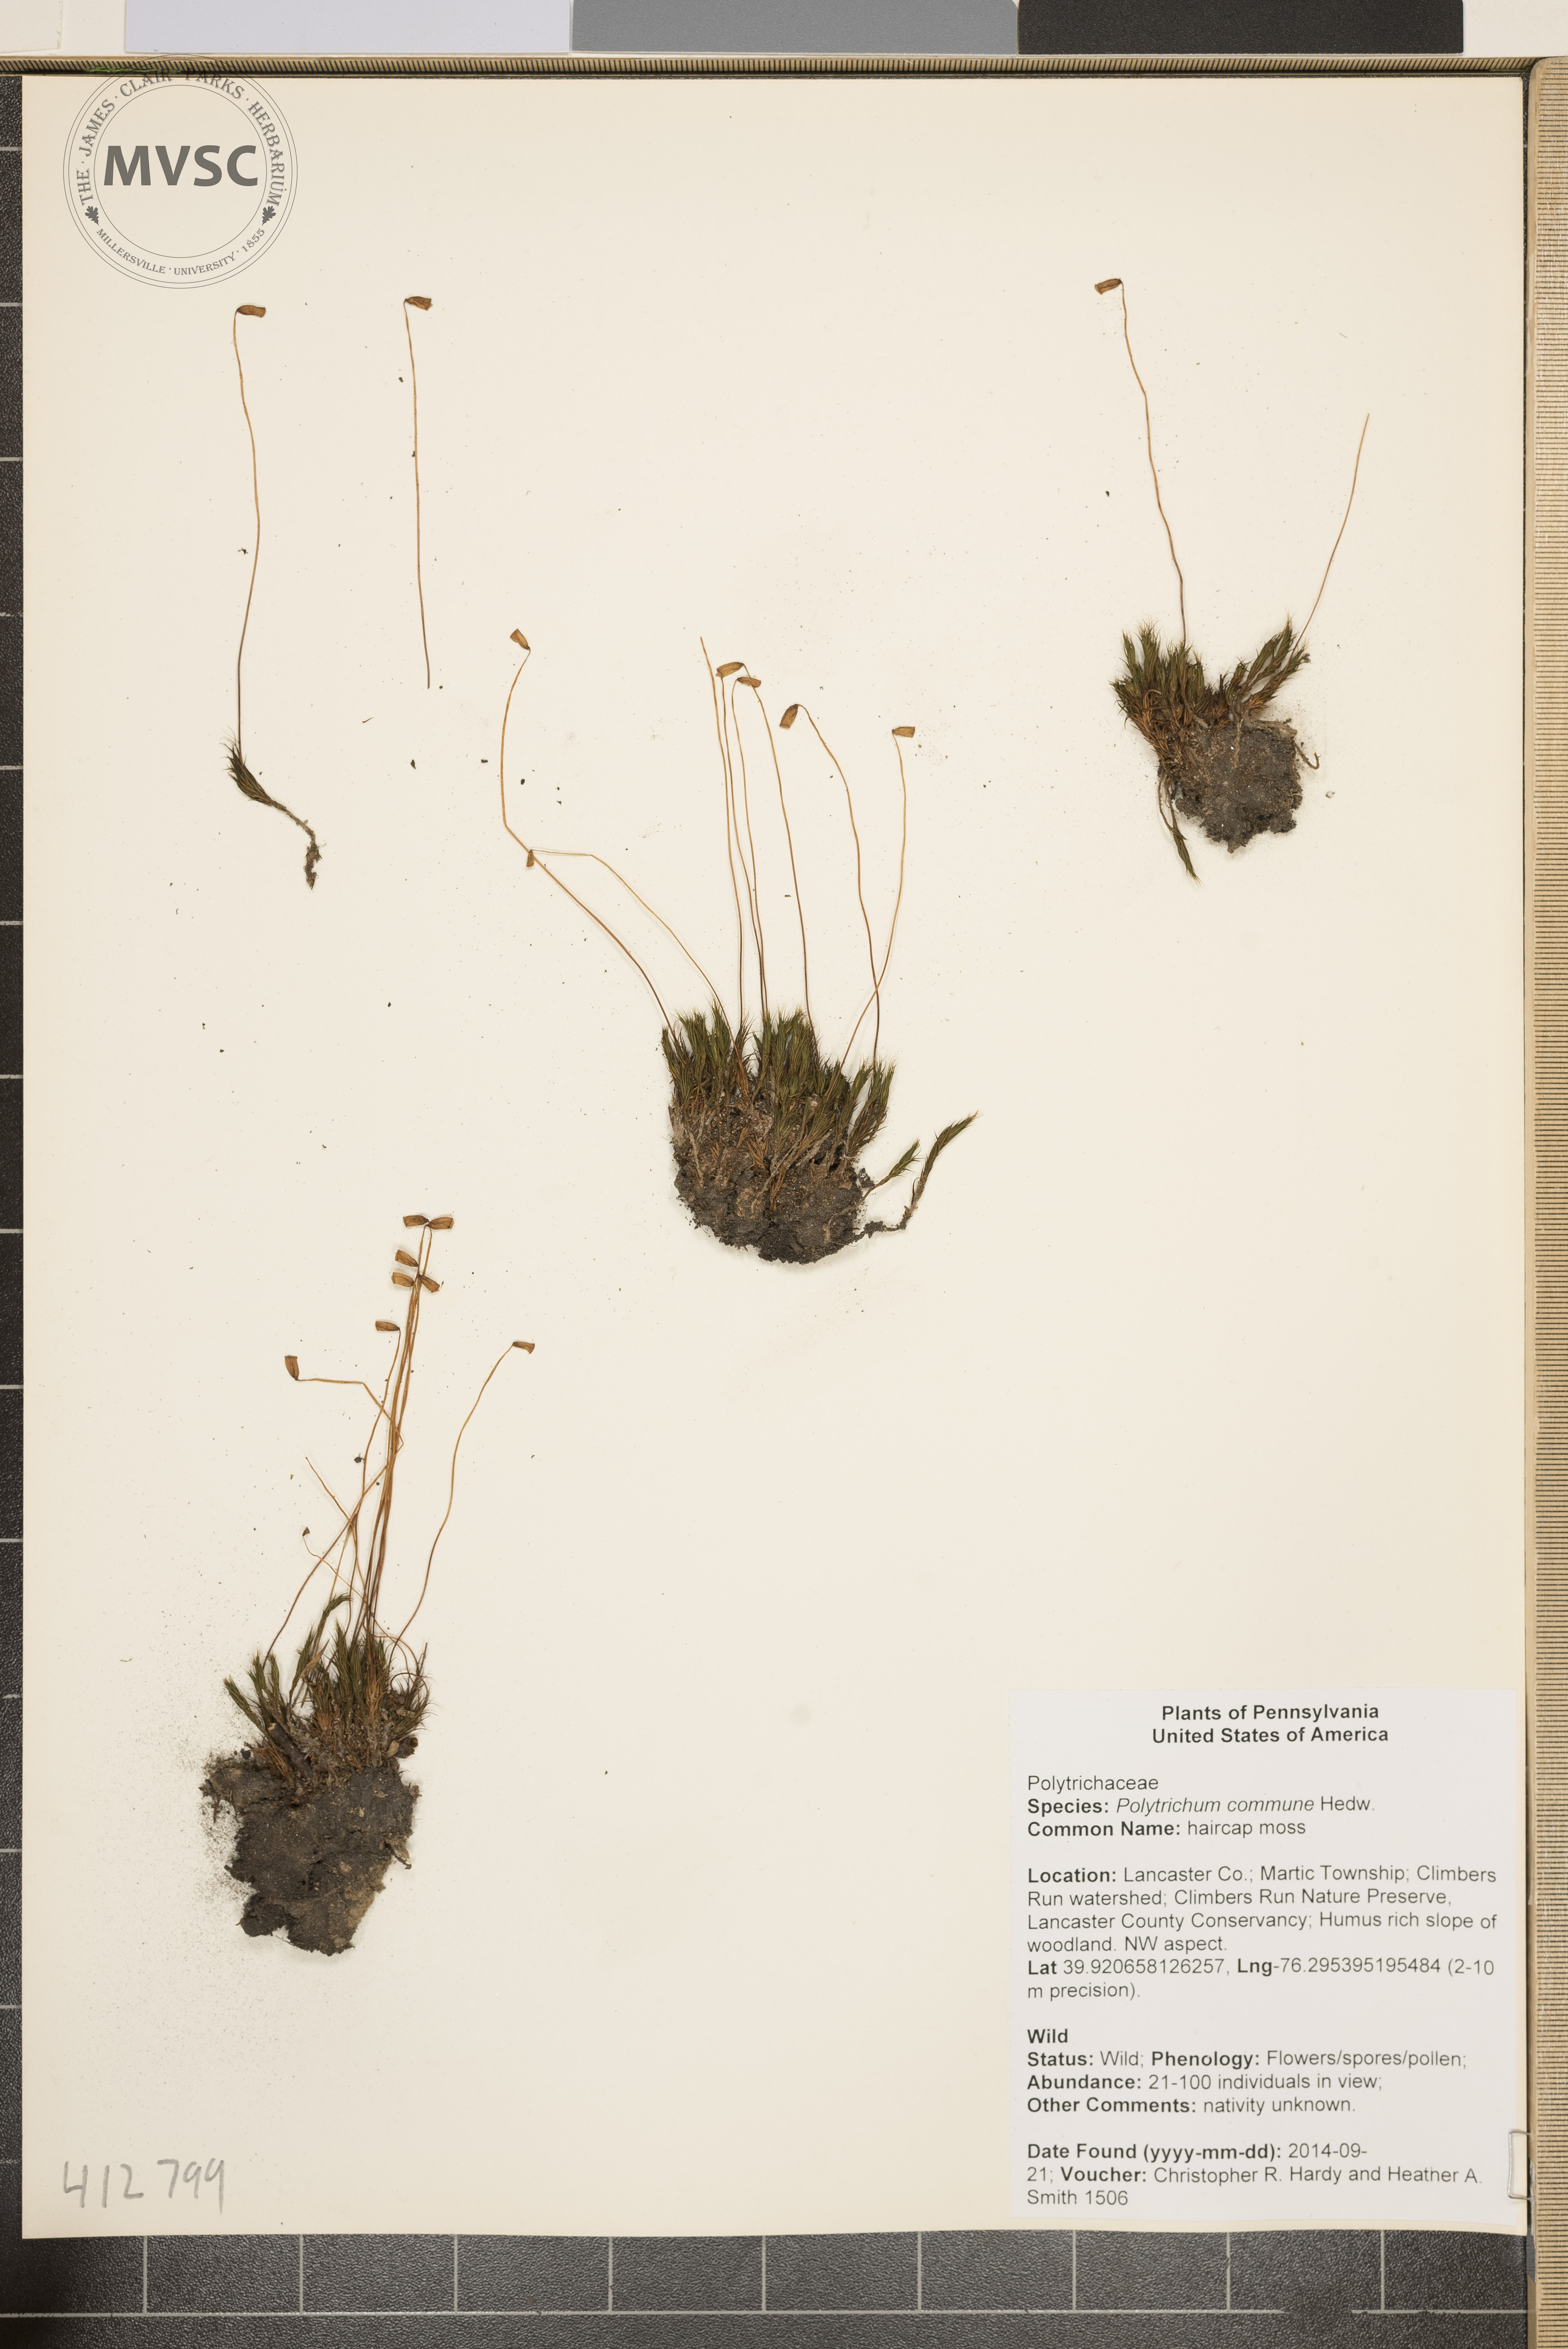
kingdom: Plantae
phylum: Bryophyta
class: Polytrichopsida
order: Polytrichales
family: Polytrichaceae
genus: Polytrichum
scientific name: Polytrichum commune
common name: haircap moss
